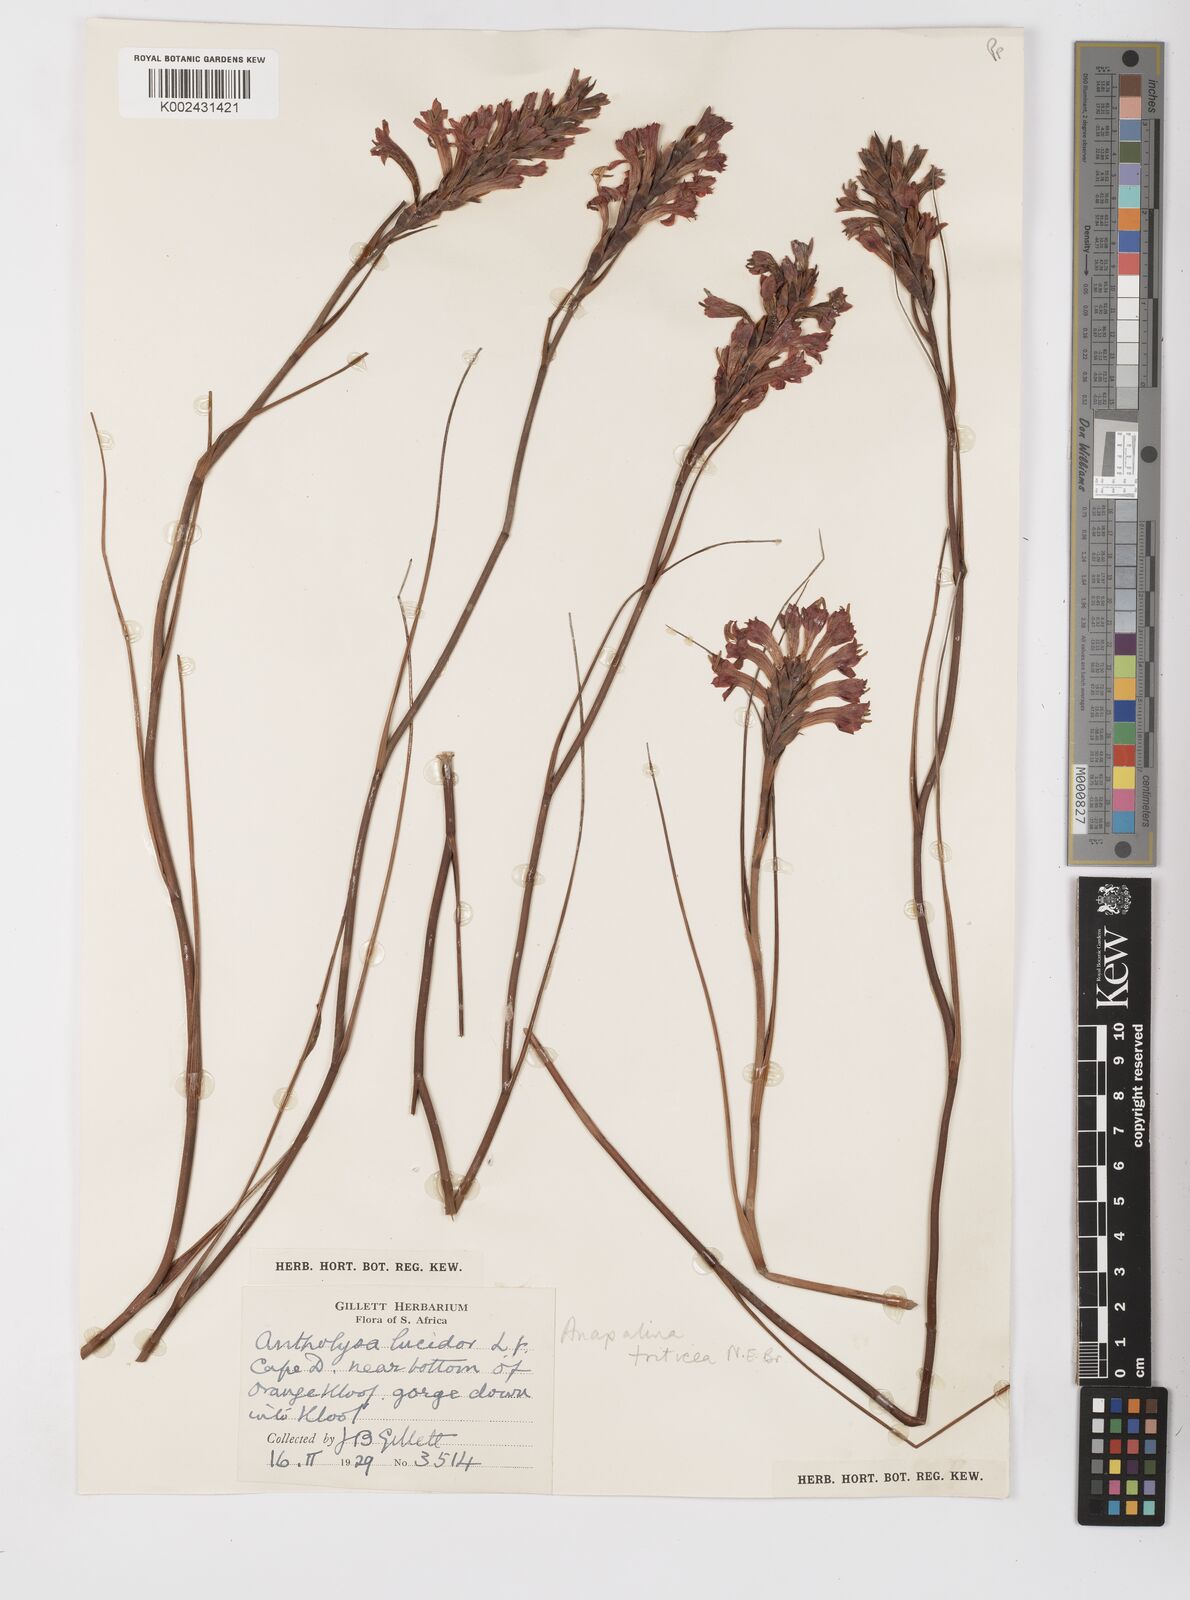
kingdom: Plantae
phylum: Tracheophyta
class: Liliopsida
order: Asparagales
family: Iridaceae
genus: Tritoniopsis
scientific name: Tritoniopsis triticea
